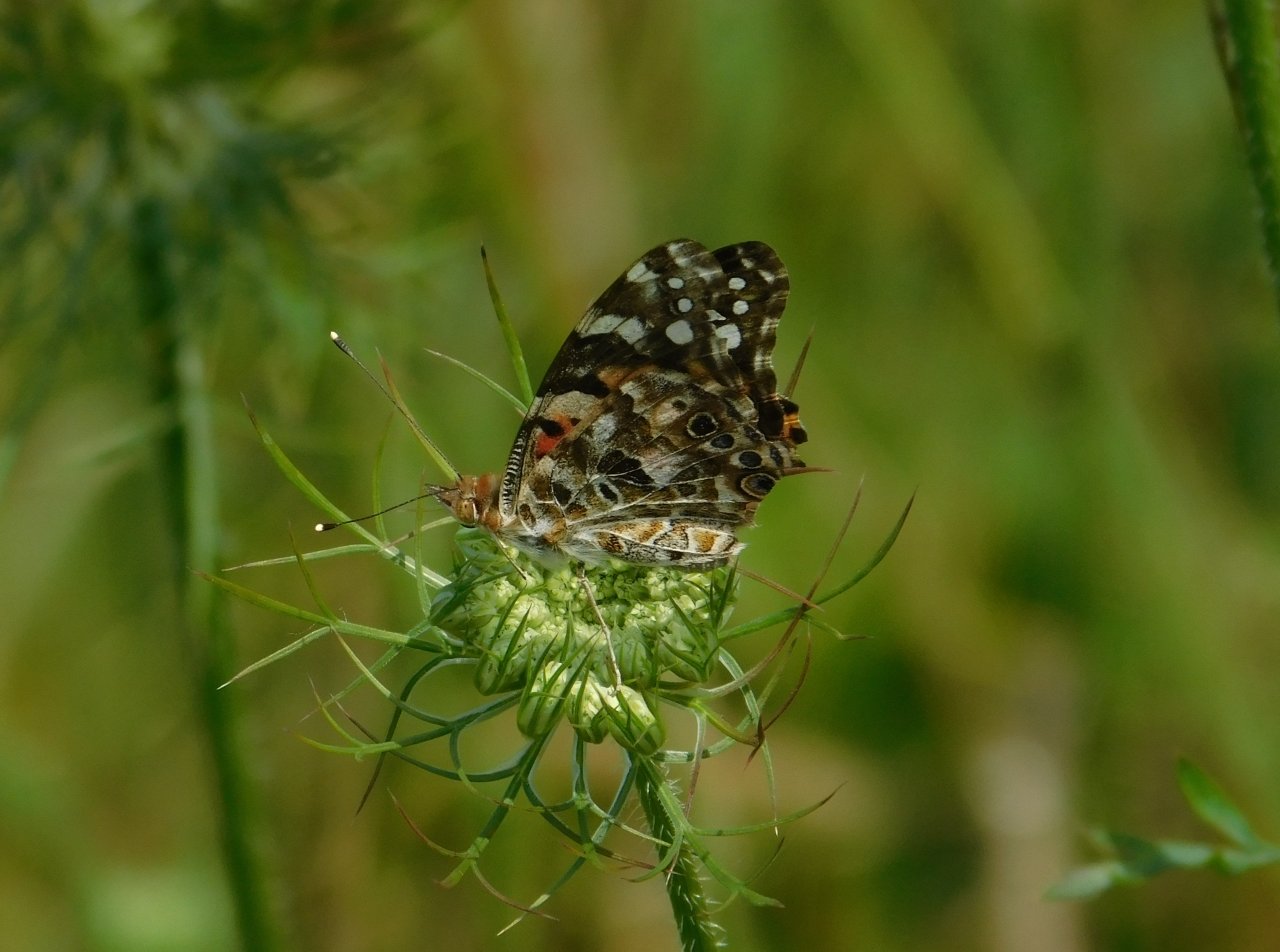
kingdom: Animalia
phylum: Arthropoda
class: Insecta
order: Lepidoptera
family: Nymphalidae
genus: Vanessa
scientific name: Vanessa cardui
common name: Painted Lady
